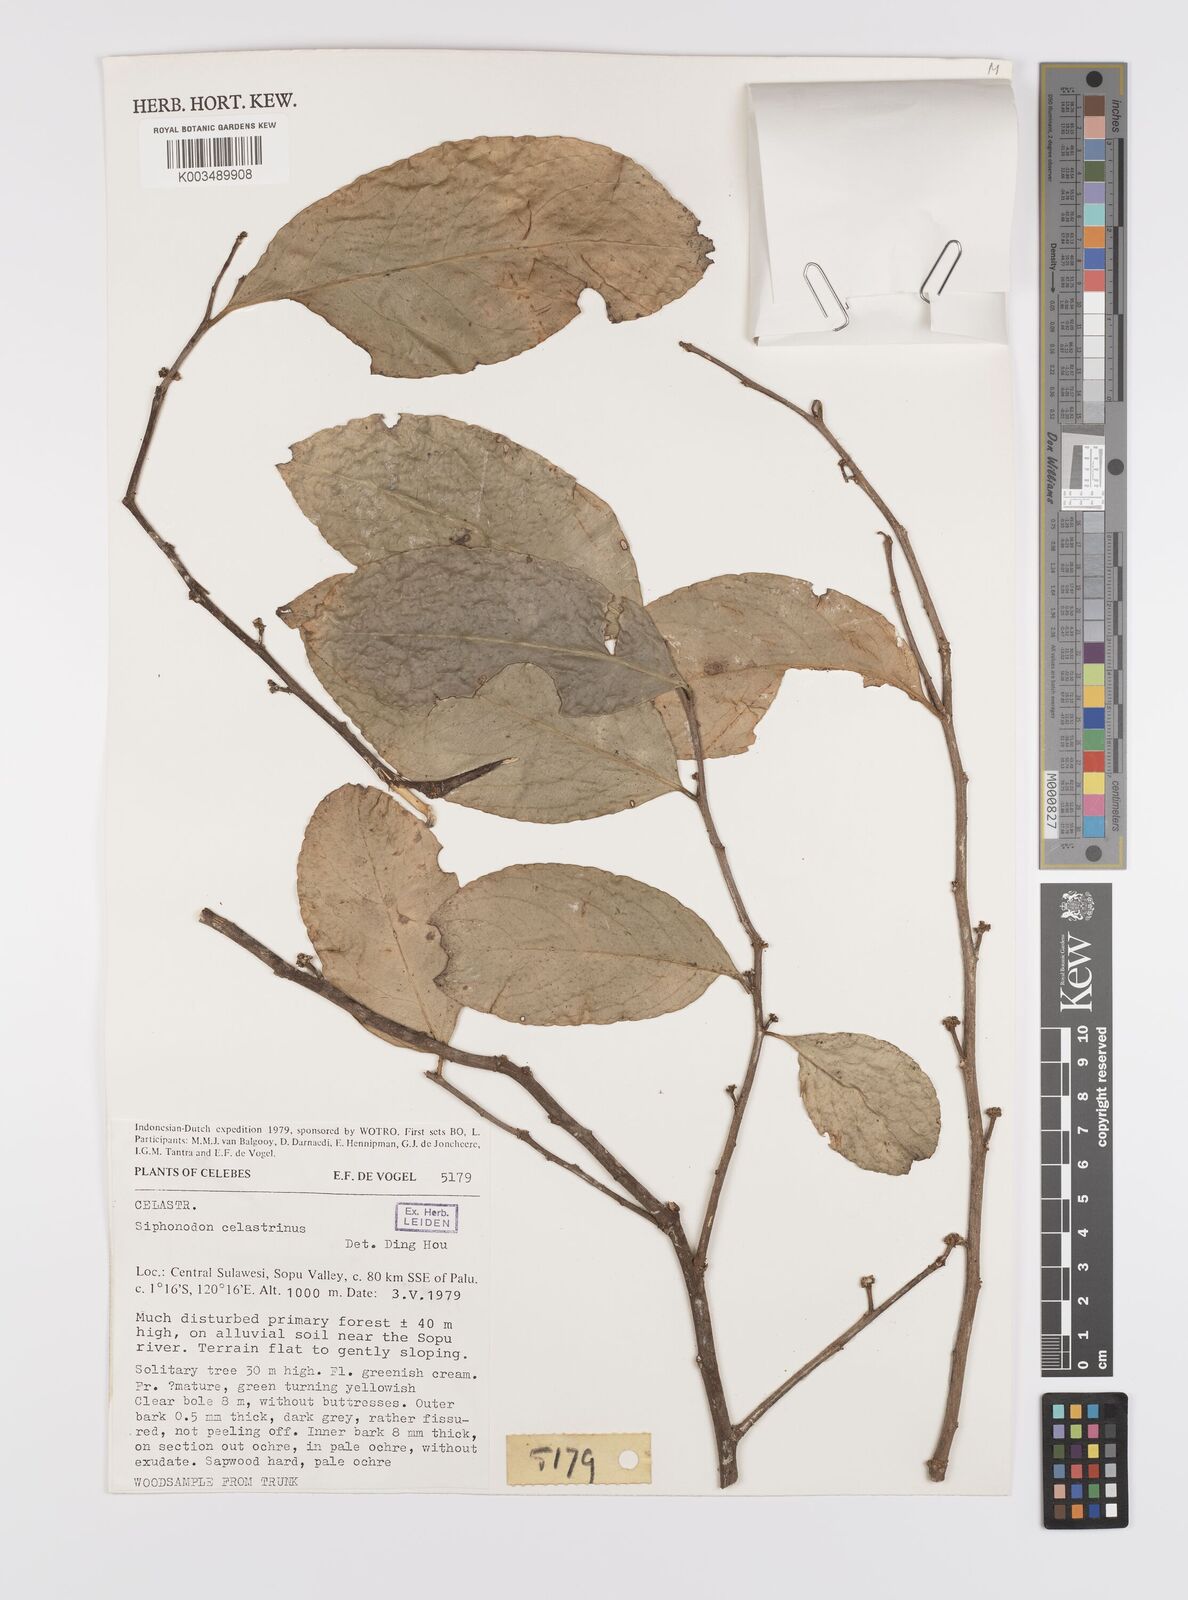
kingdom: Plantae
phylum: Tracheophyta
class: Magnoliopsida
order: Celastrales
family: Celastraceae
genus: Siphonodon
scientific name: Siphonodon celastrineus
